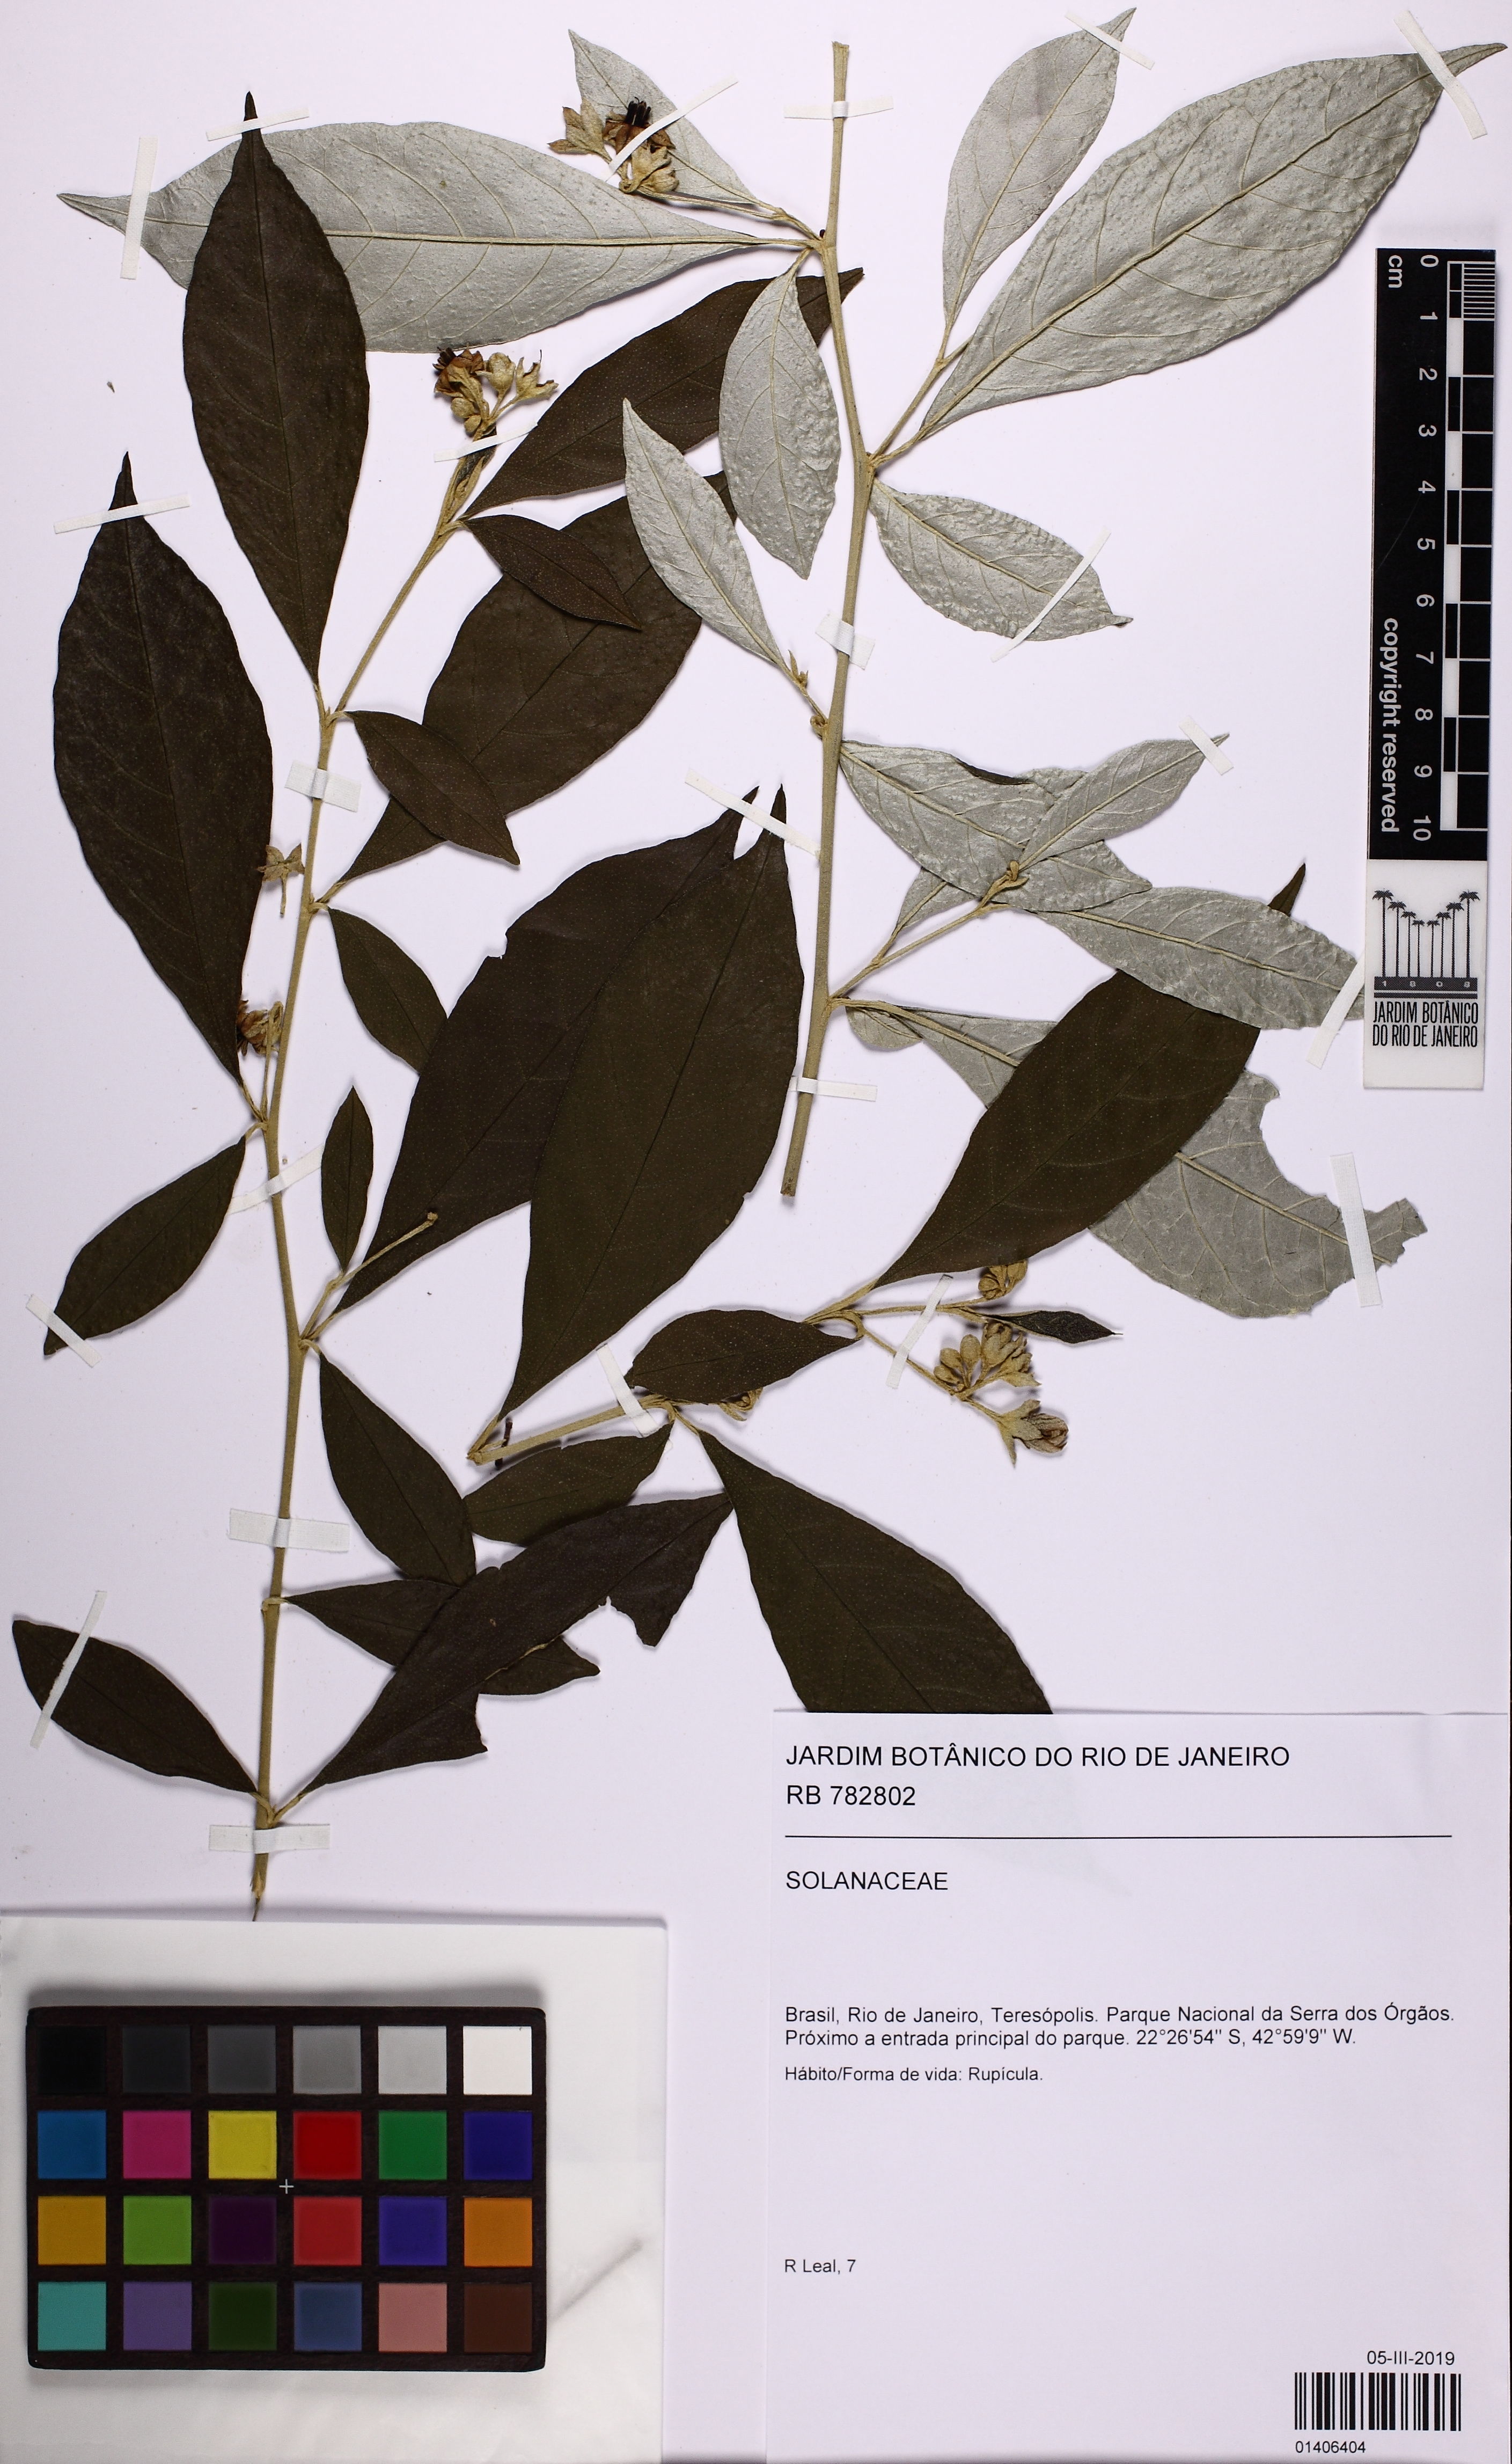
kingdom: Plantae
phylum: Tracheophyta
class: Magnoliopsida
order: Solanales
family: Solanaceae
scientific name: Solanaceae
